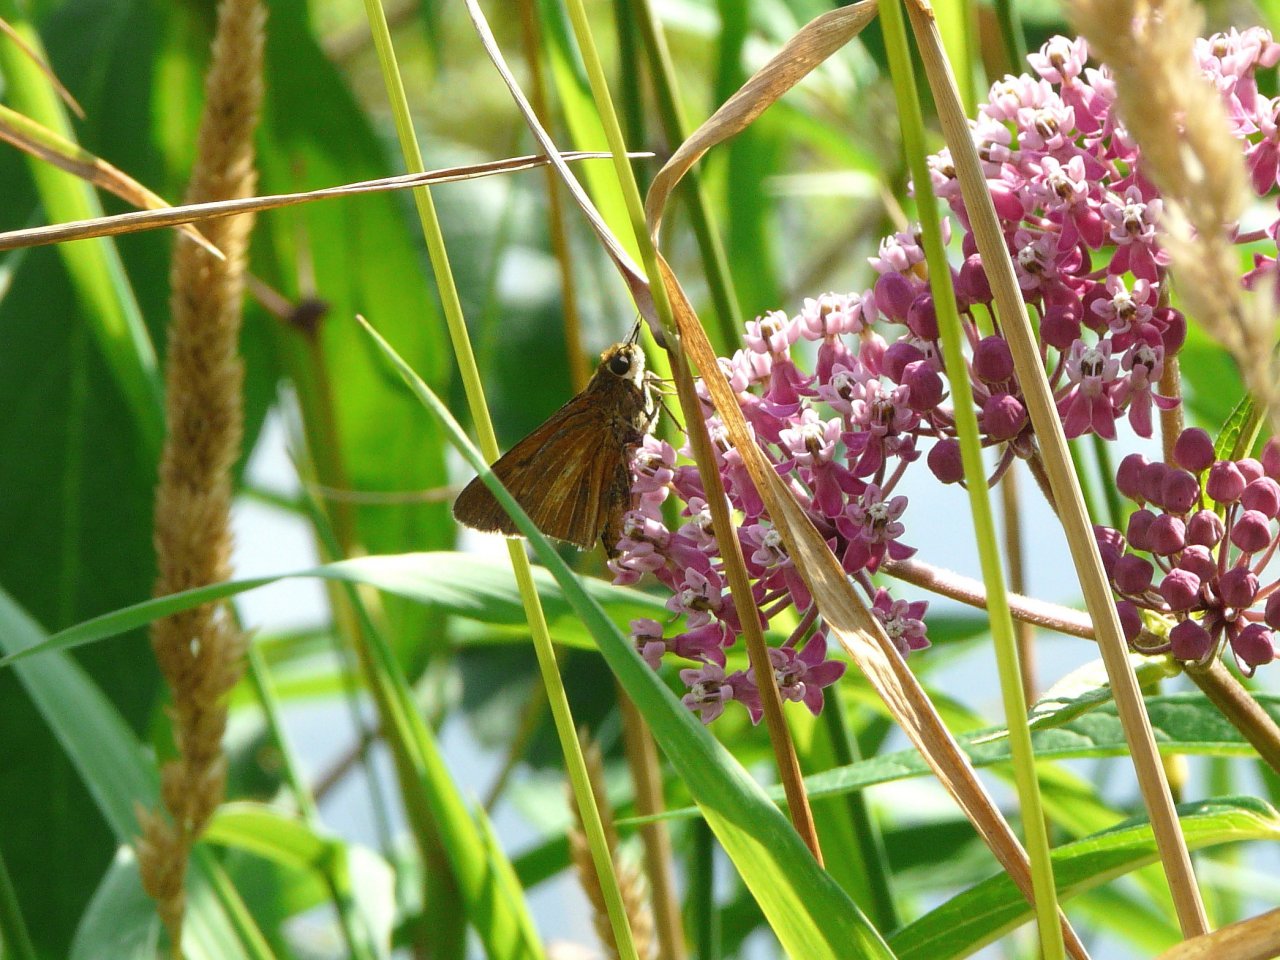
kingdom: Animalia
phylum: Arthropoda
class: Insecta
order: Lepidoptera
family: Hesperiidae
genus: Euphyes
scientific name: Euphyes dion
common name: Dion Skipper
